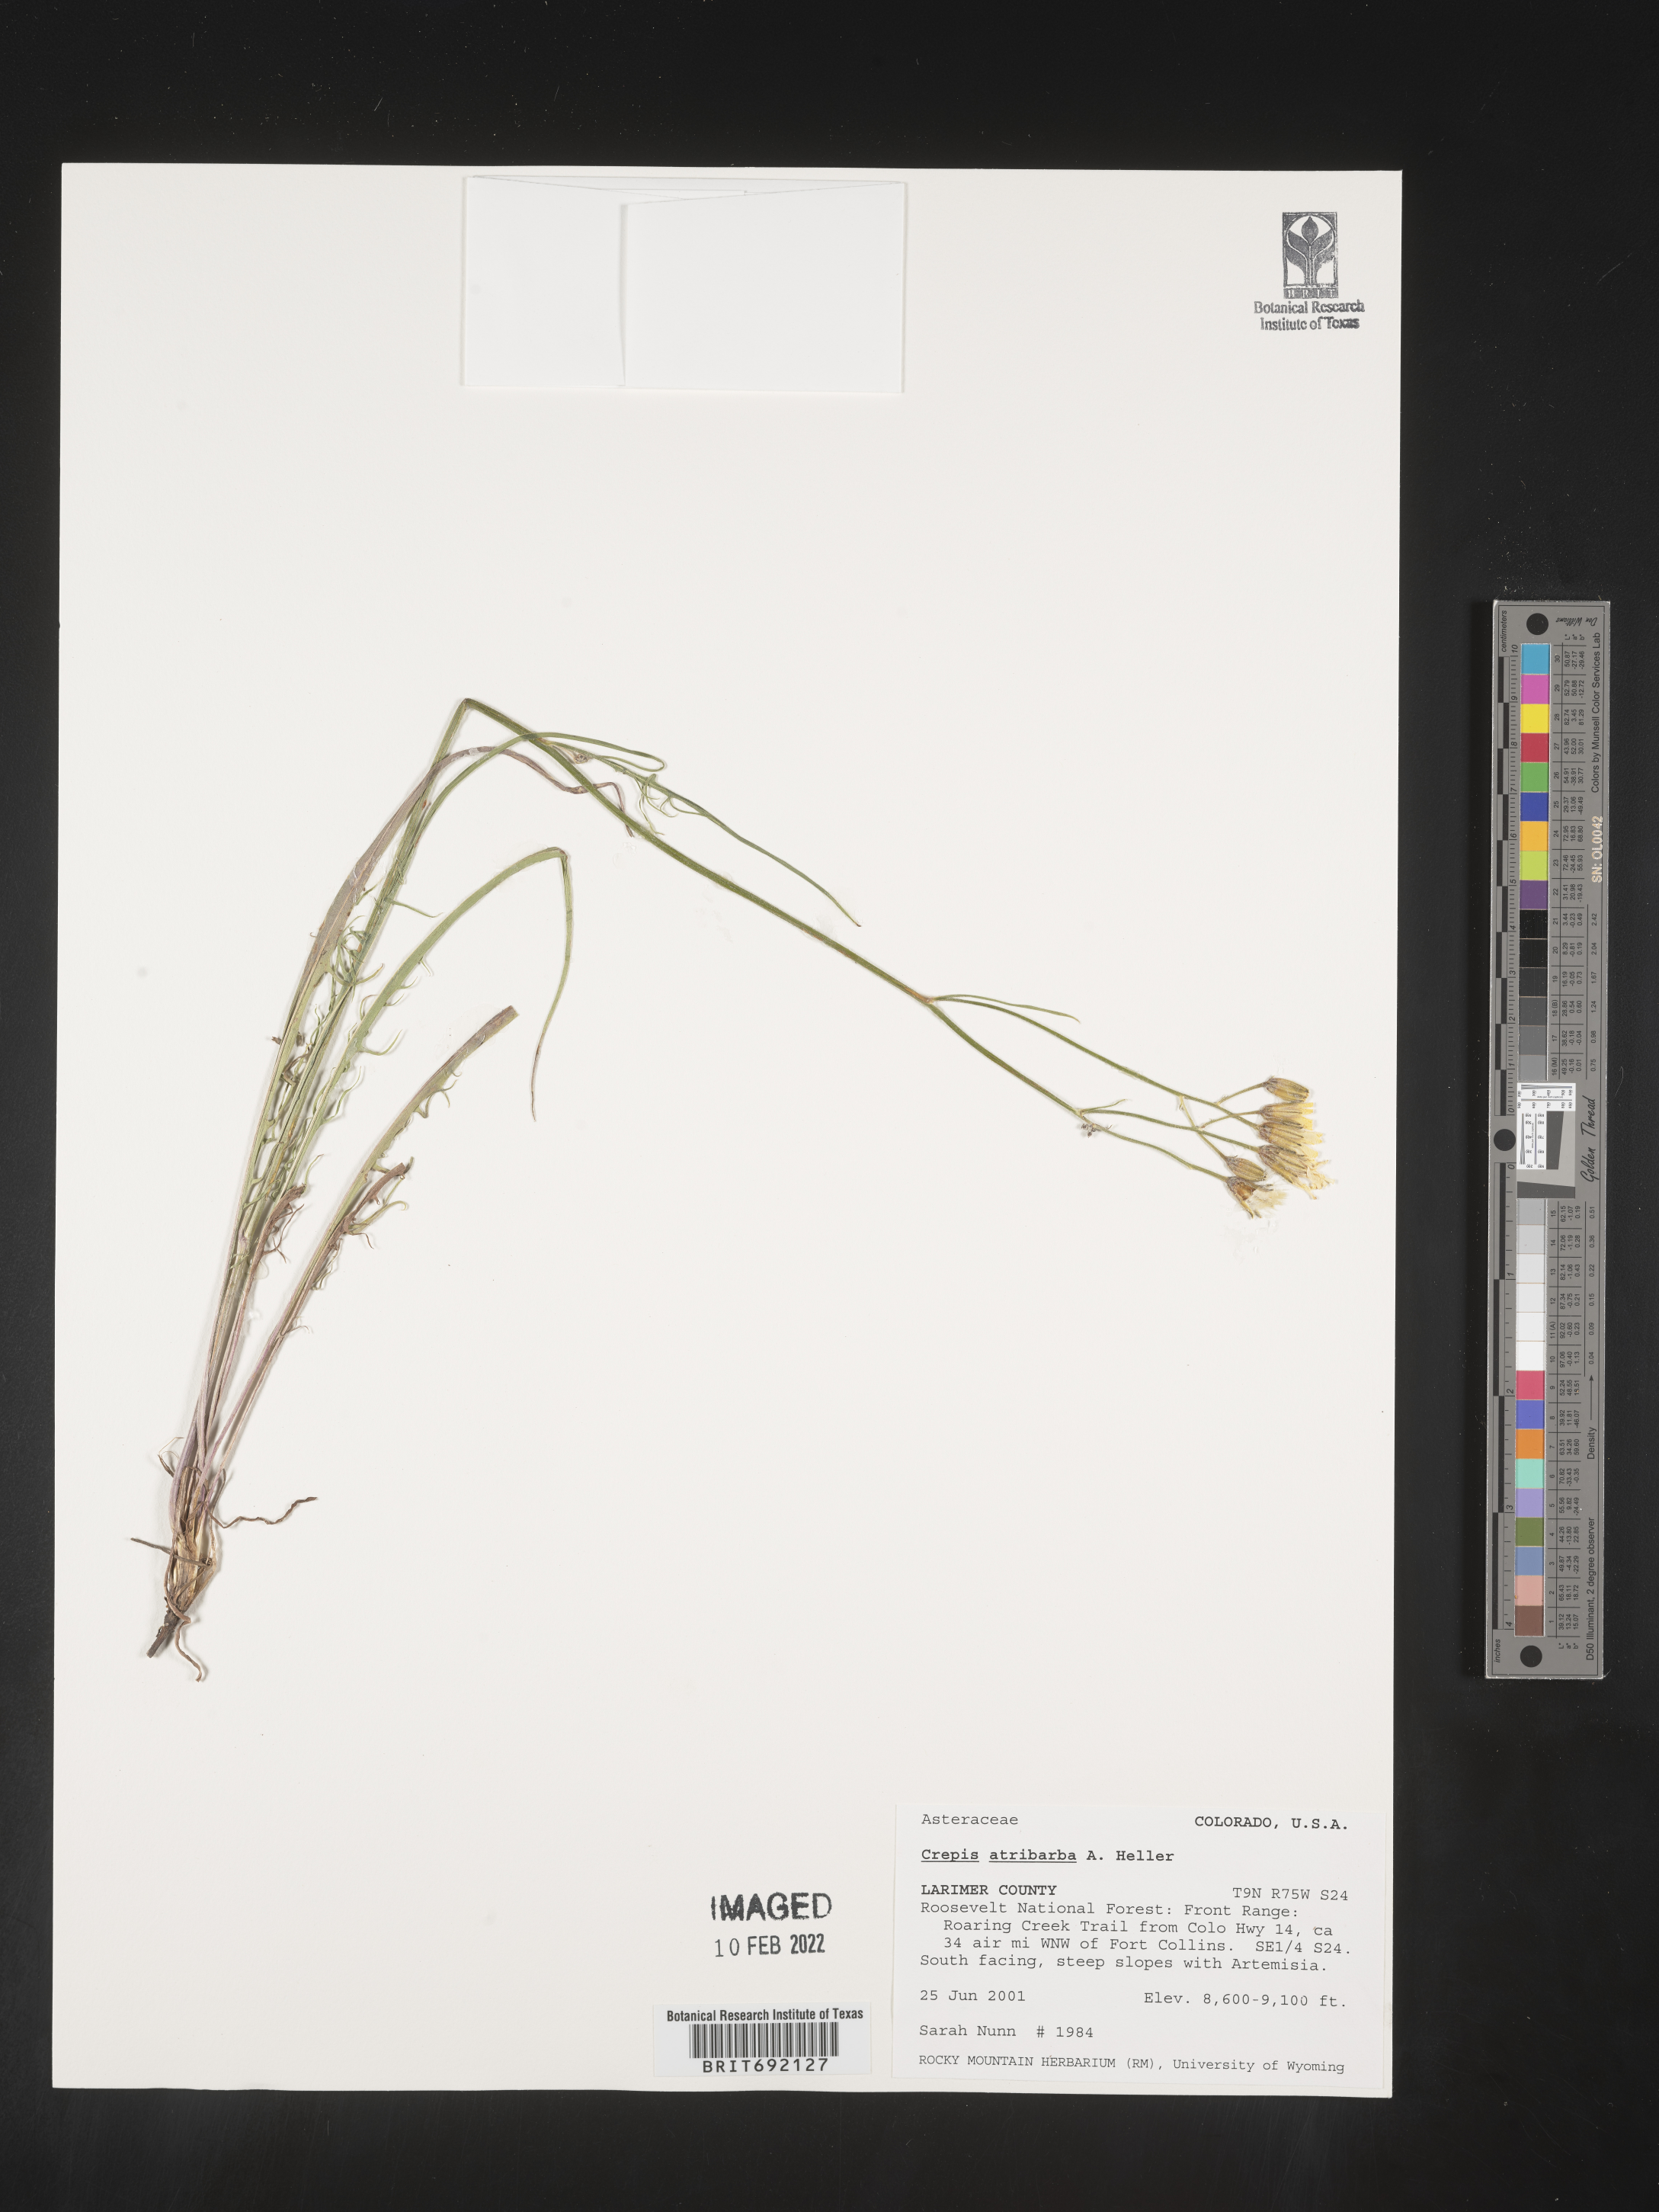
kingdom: Plantae
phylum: Tracheophyta
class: Magnoliopsida
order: Asterales
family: Asteraceae
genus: Crepis
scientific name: Crepis
